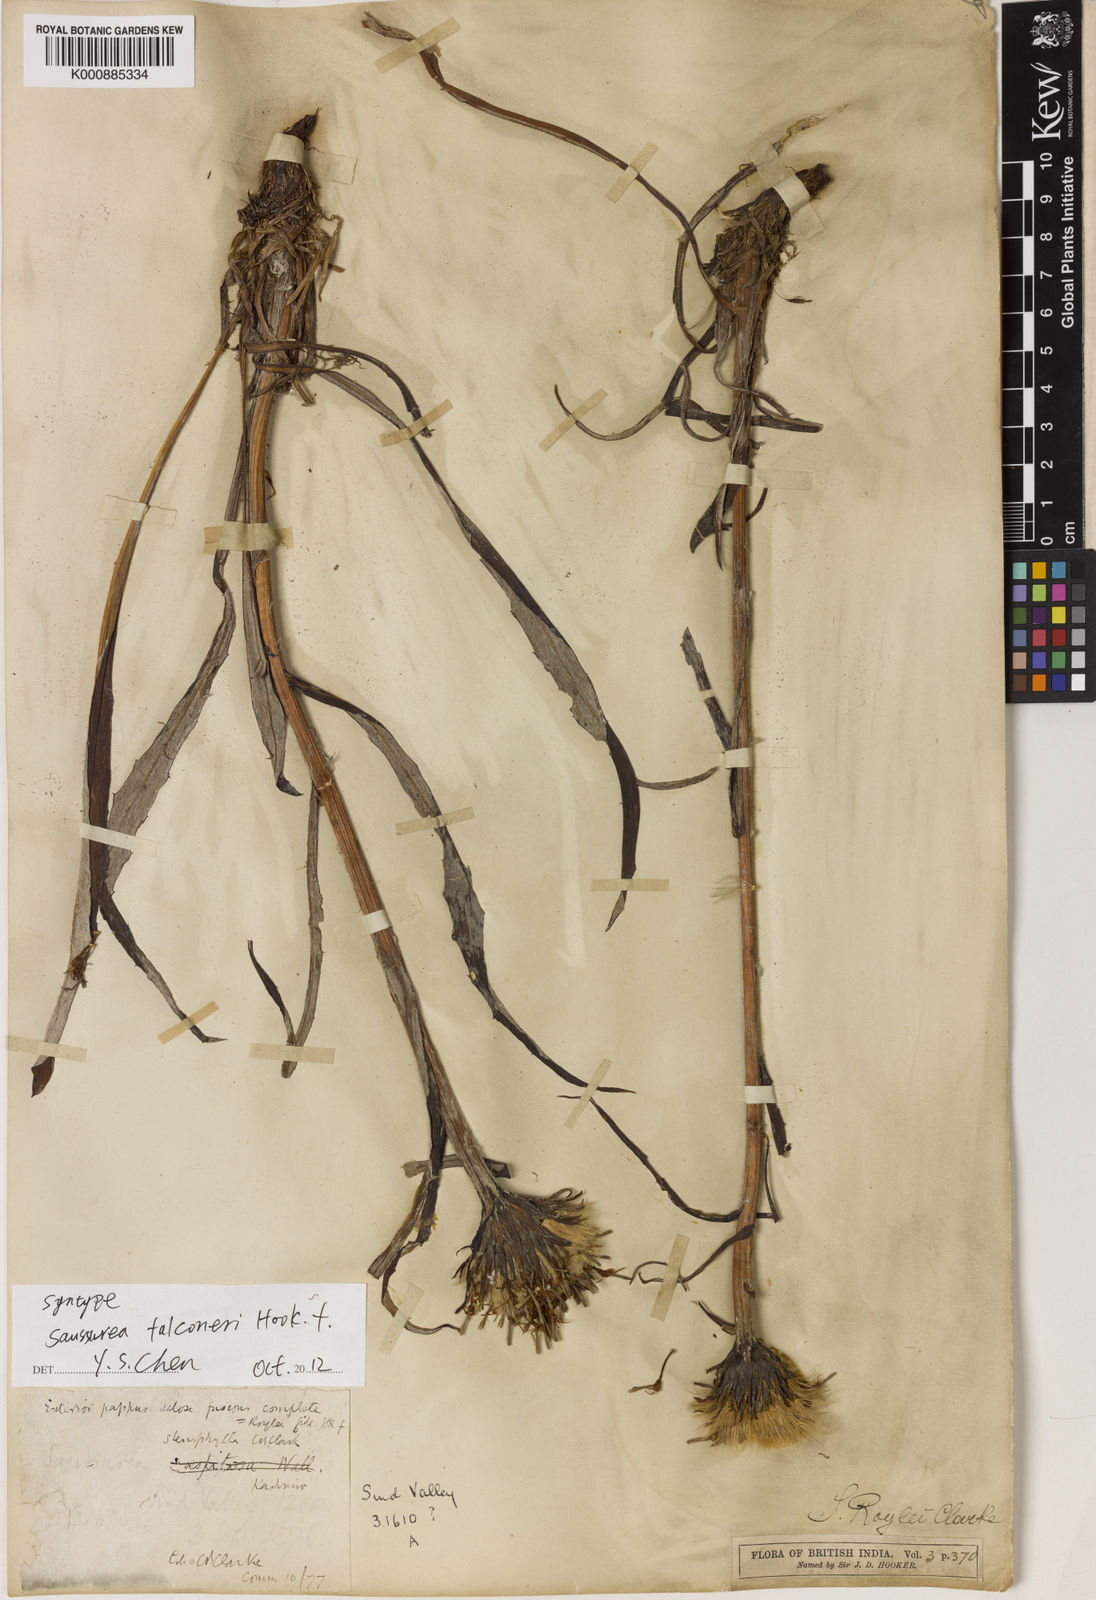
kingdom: Plantae
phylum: Tracheophyta
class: Magnoliopsida
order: Asterales
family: Asteraceae
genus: Saussurea
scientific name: Saussurea devendrae
